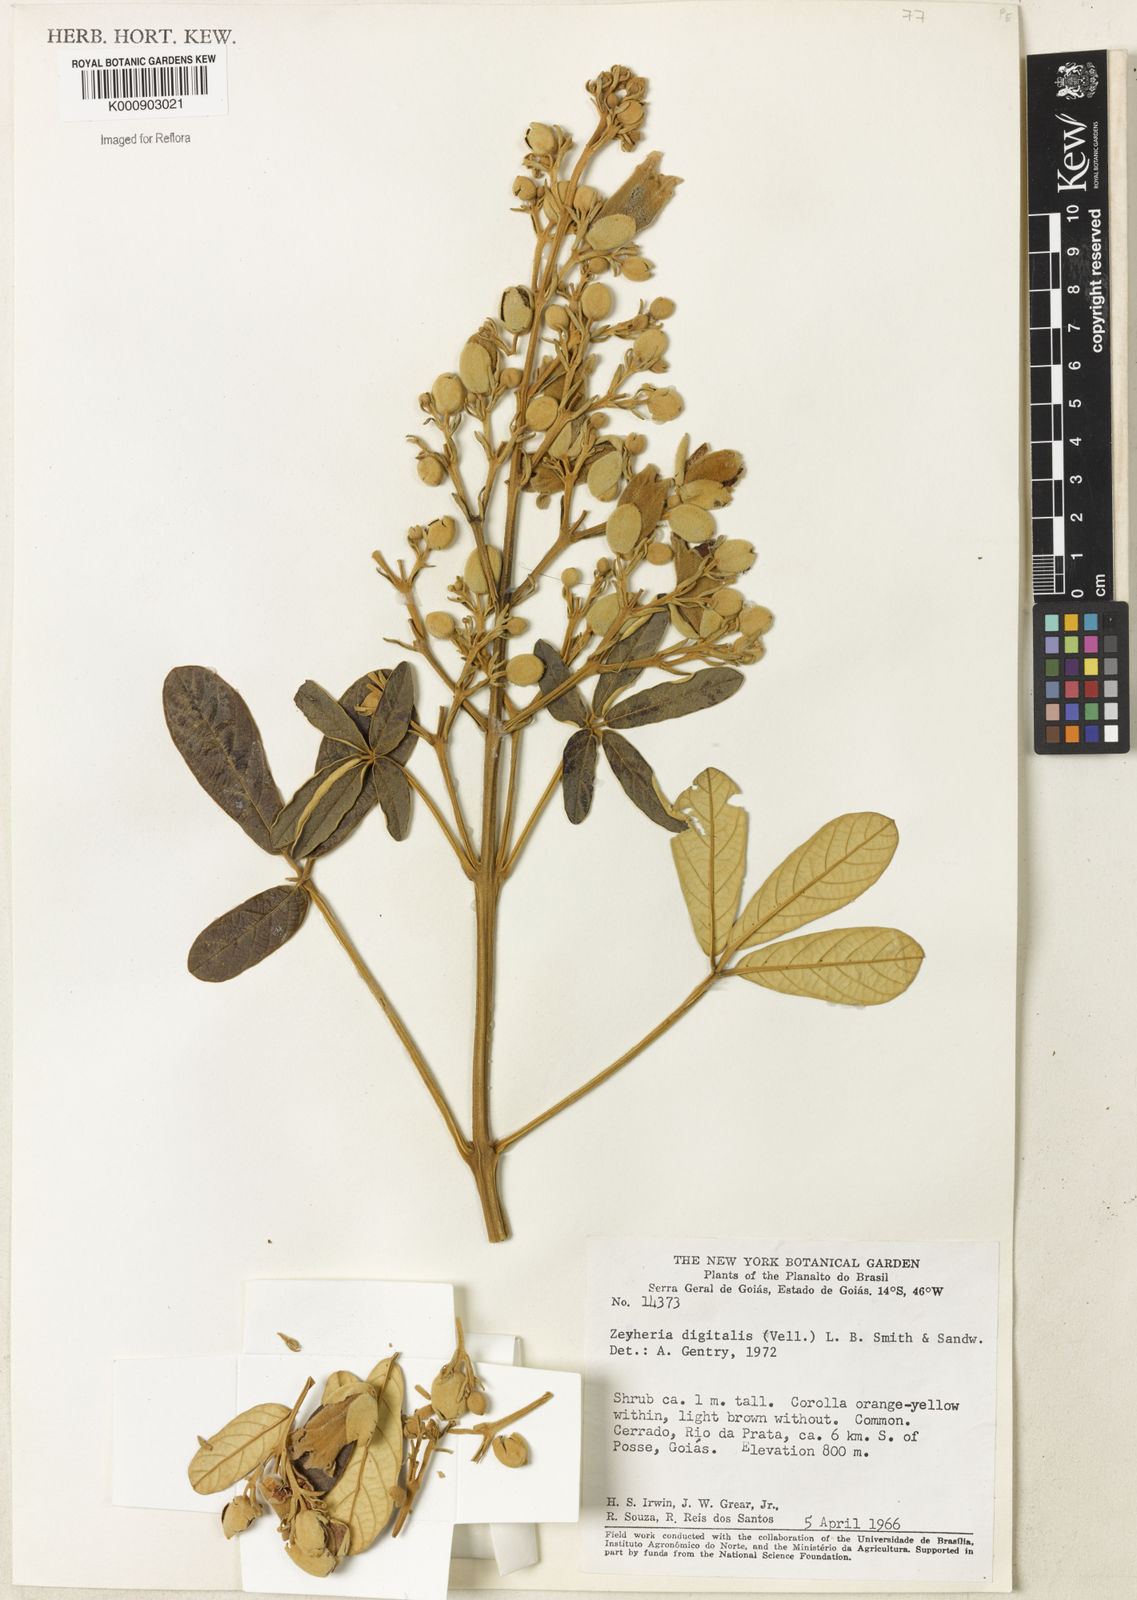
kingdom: Plantae
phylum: Tracheophyta
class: Magnoliopsida
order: Lamiales
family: Bignoniaceae
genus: Zeyheria
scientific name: Zeyheria
